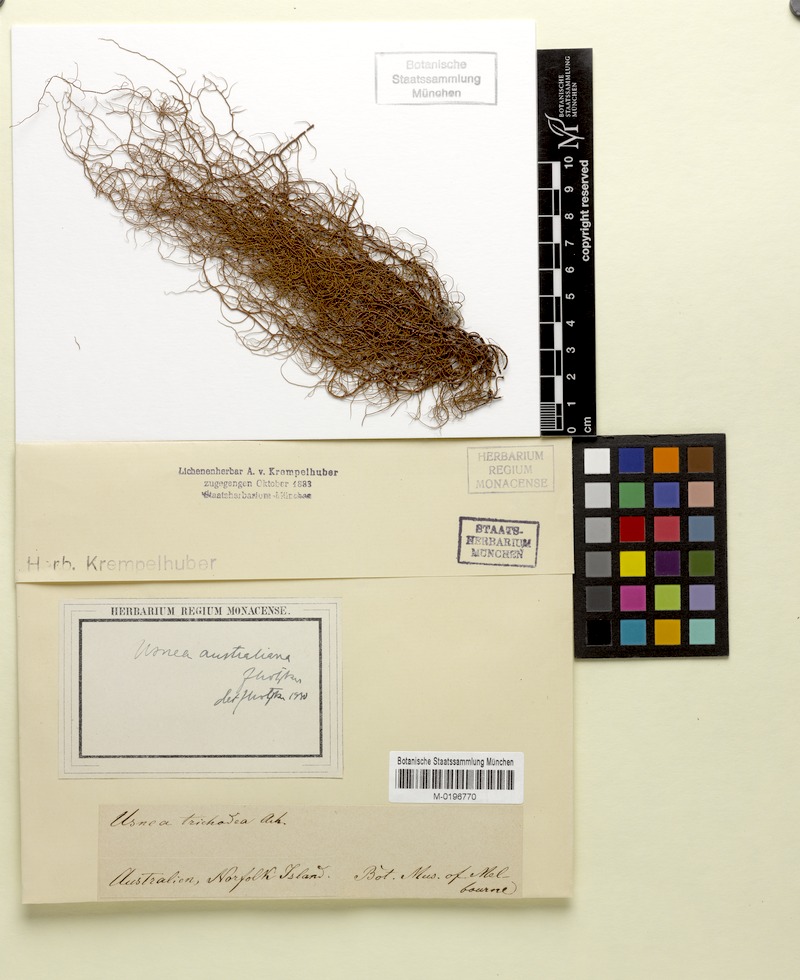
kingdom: Fungi
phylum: Ascomycota
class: Lecanoromycetes
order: Lecanorales
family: Parmeliaceae
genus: Usnea
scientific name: Usnea australiana
